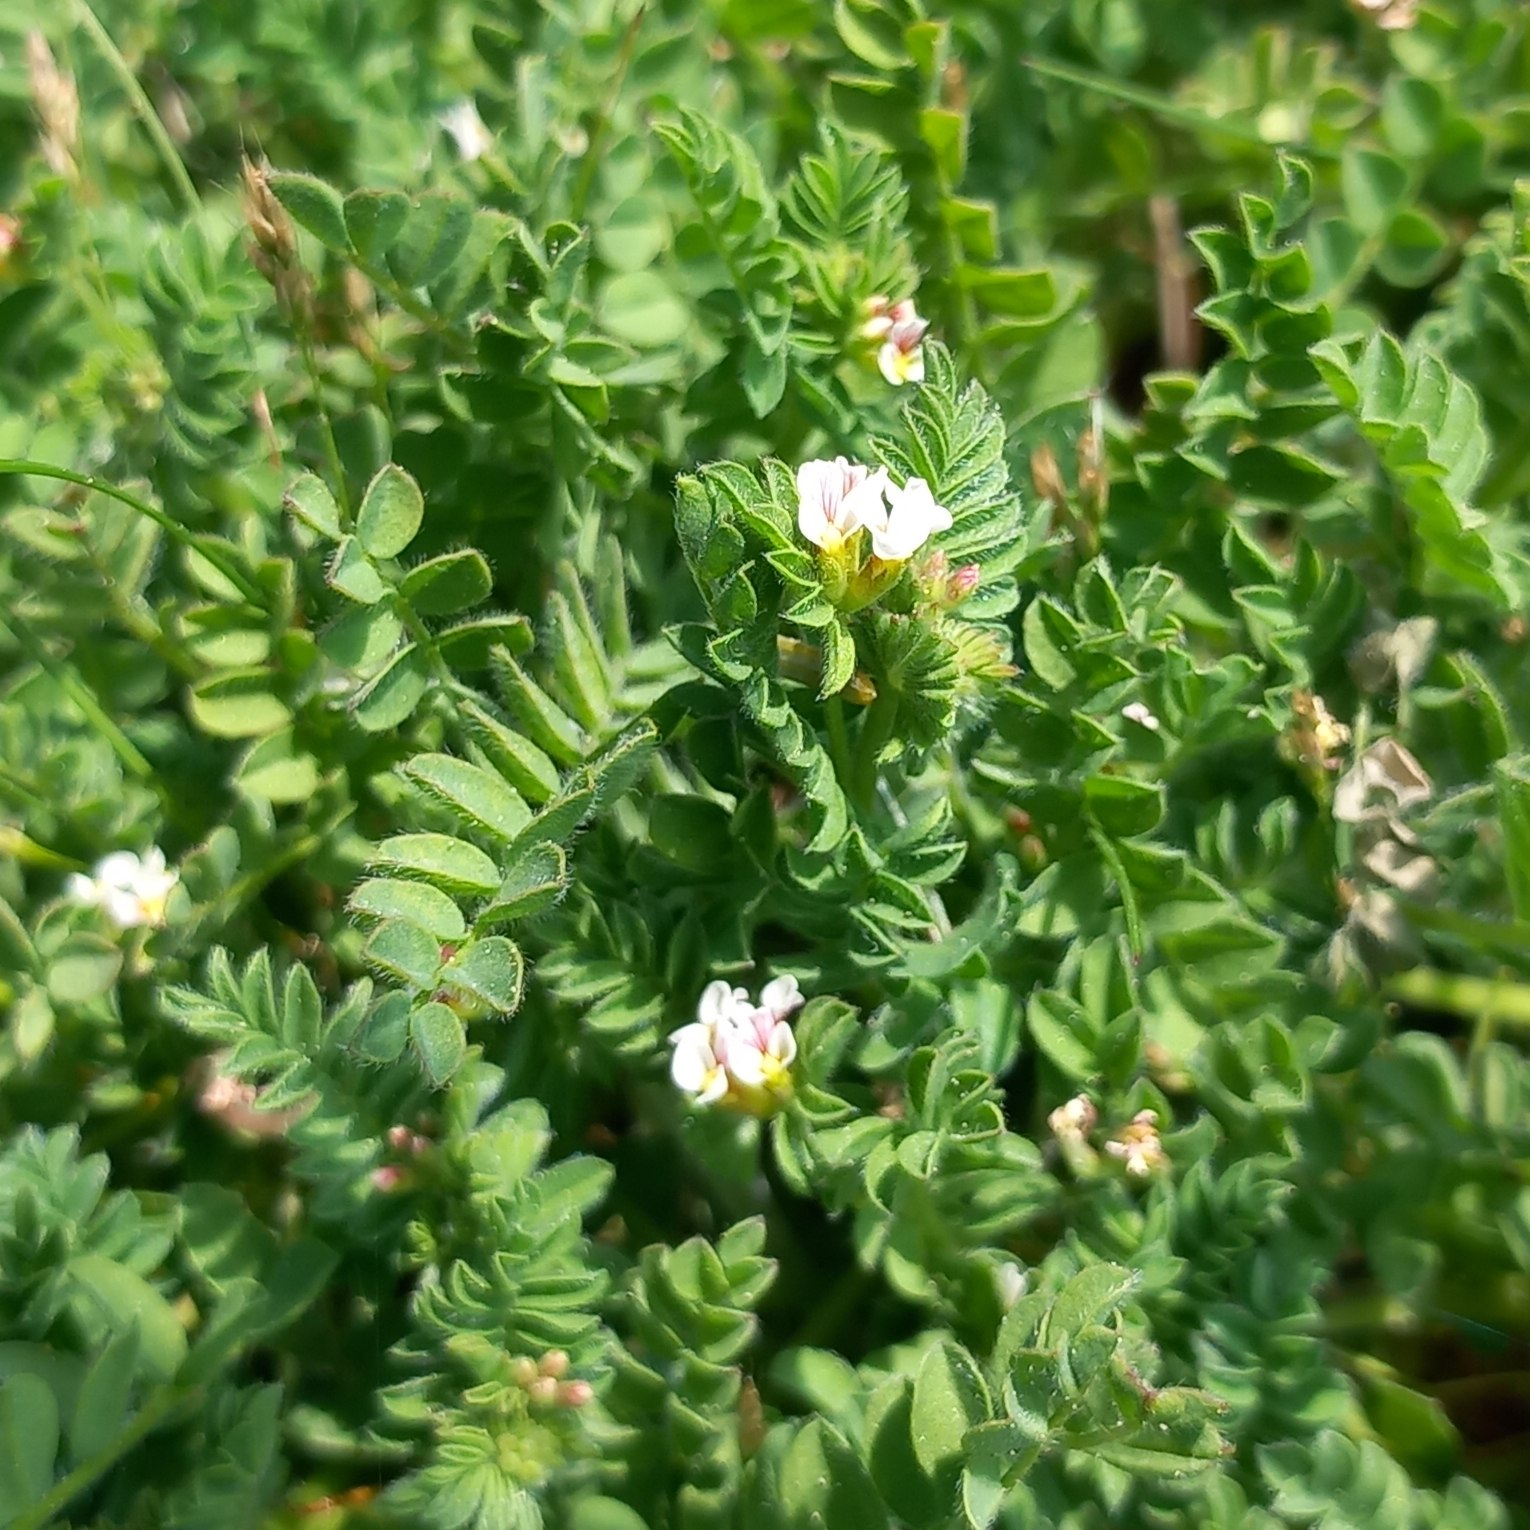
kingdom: Plantae
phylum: Tracheophyta
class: Magnoliopsida
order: Fabales
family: Fabaceae
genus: Ornithopus
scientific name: Ornithopus perpusillus
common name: Liden fugleklo
